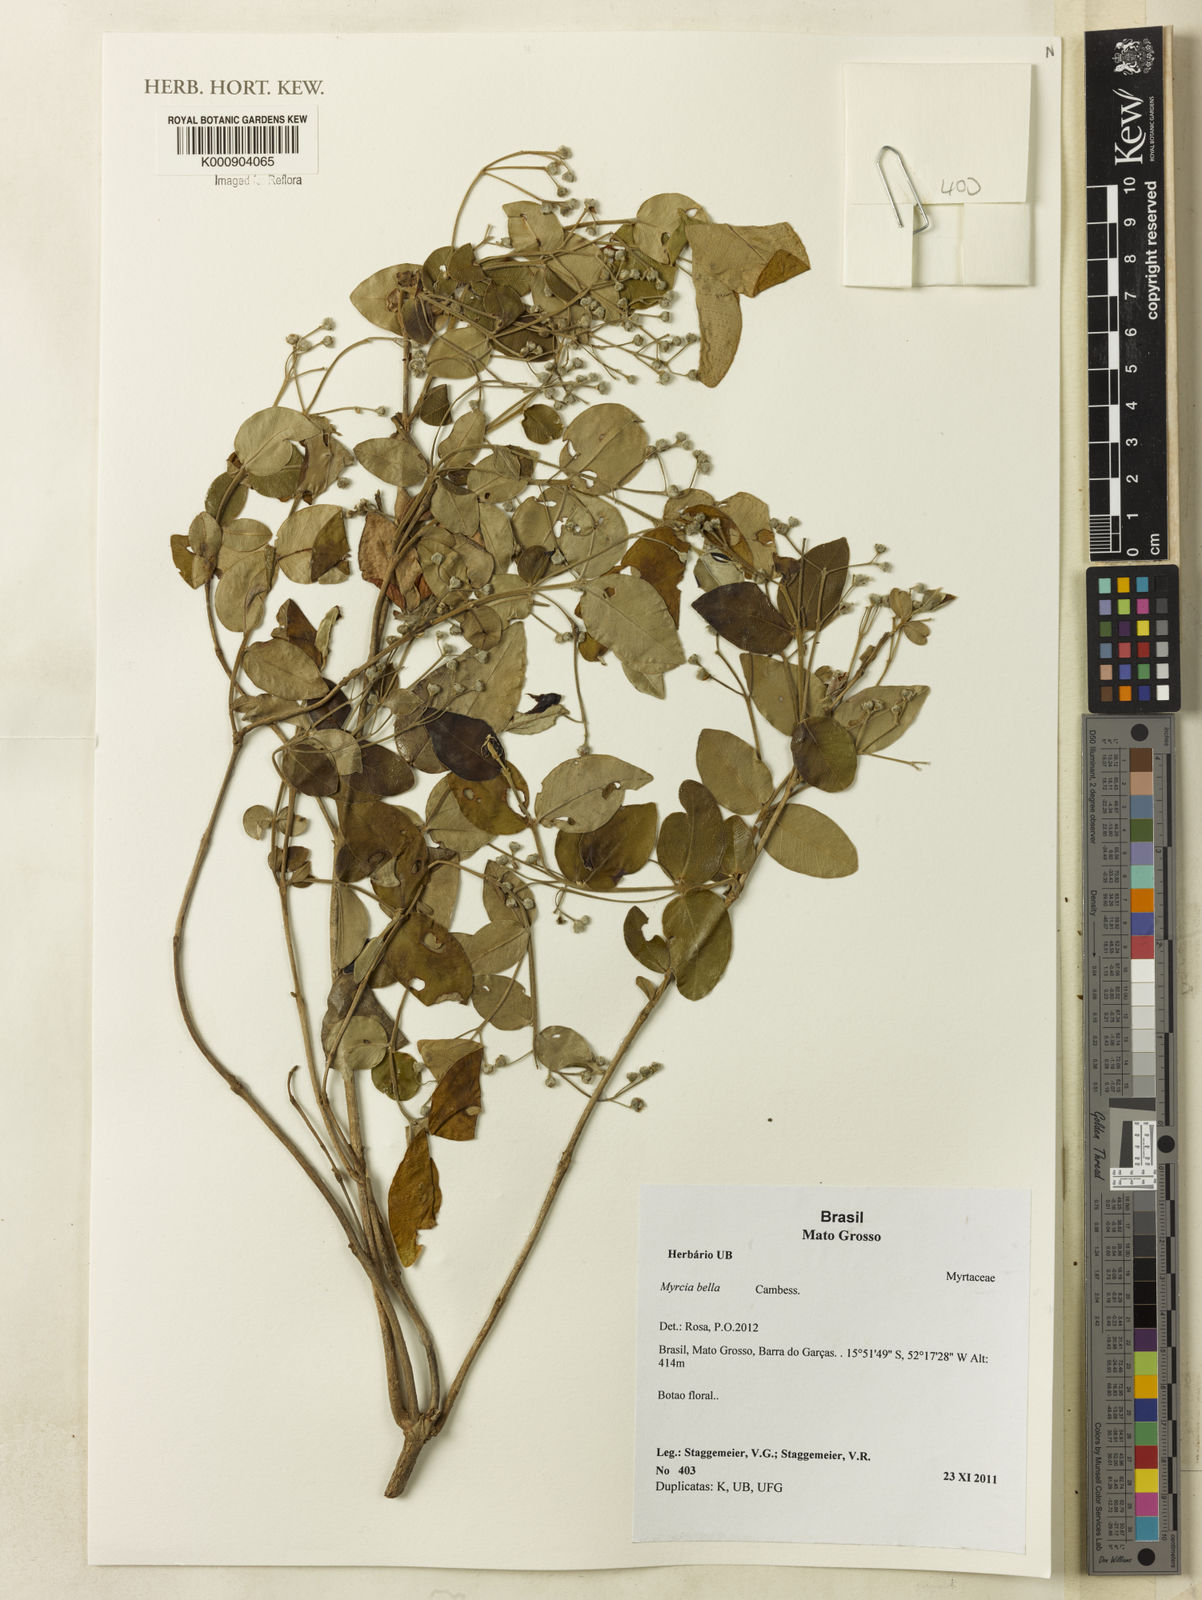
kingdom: Plantae
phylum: Tracheophyta
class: Magnoliopsida
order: Myrtales
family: Myrtaceae
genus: Myrcia
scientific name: Myrcia bella
